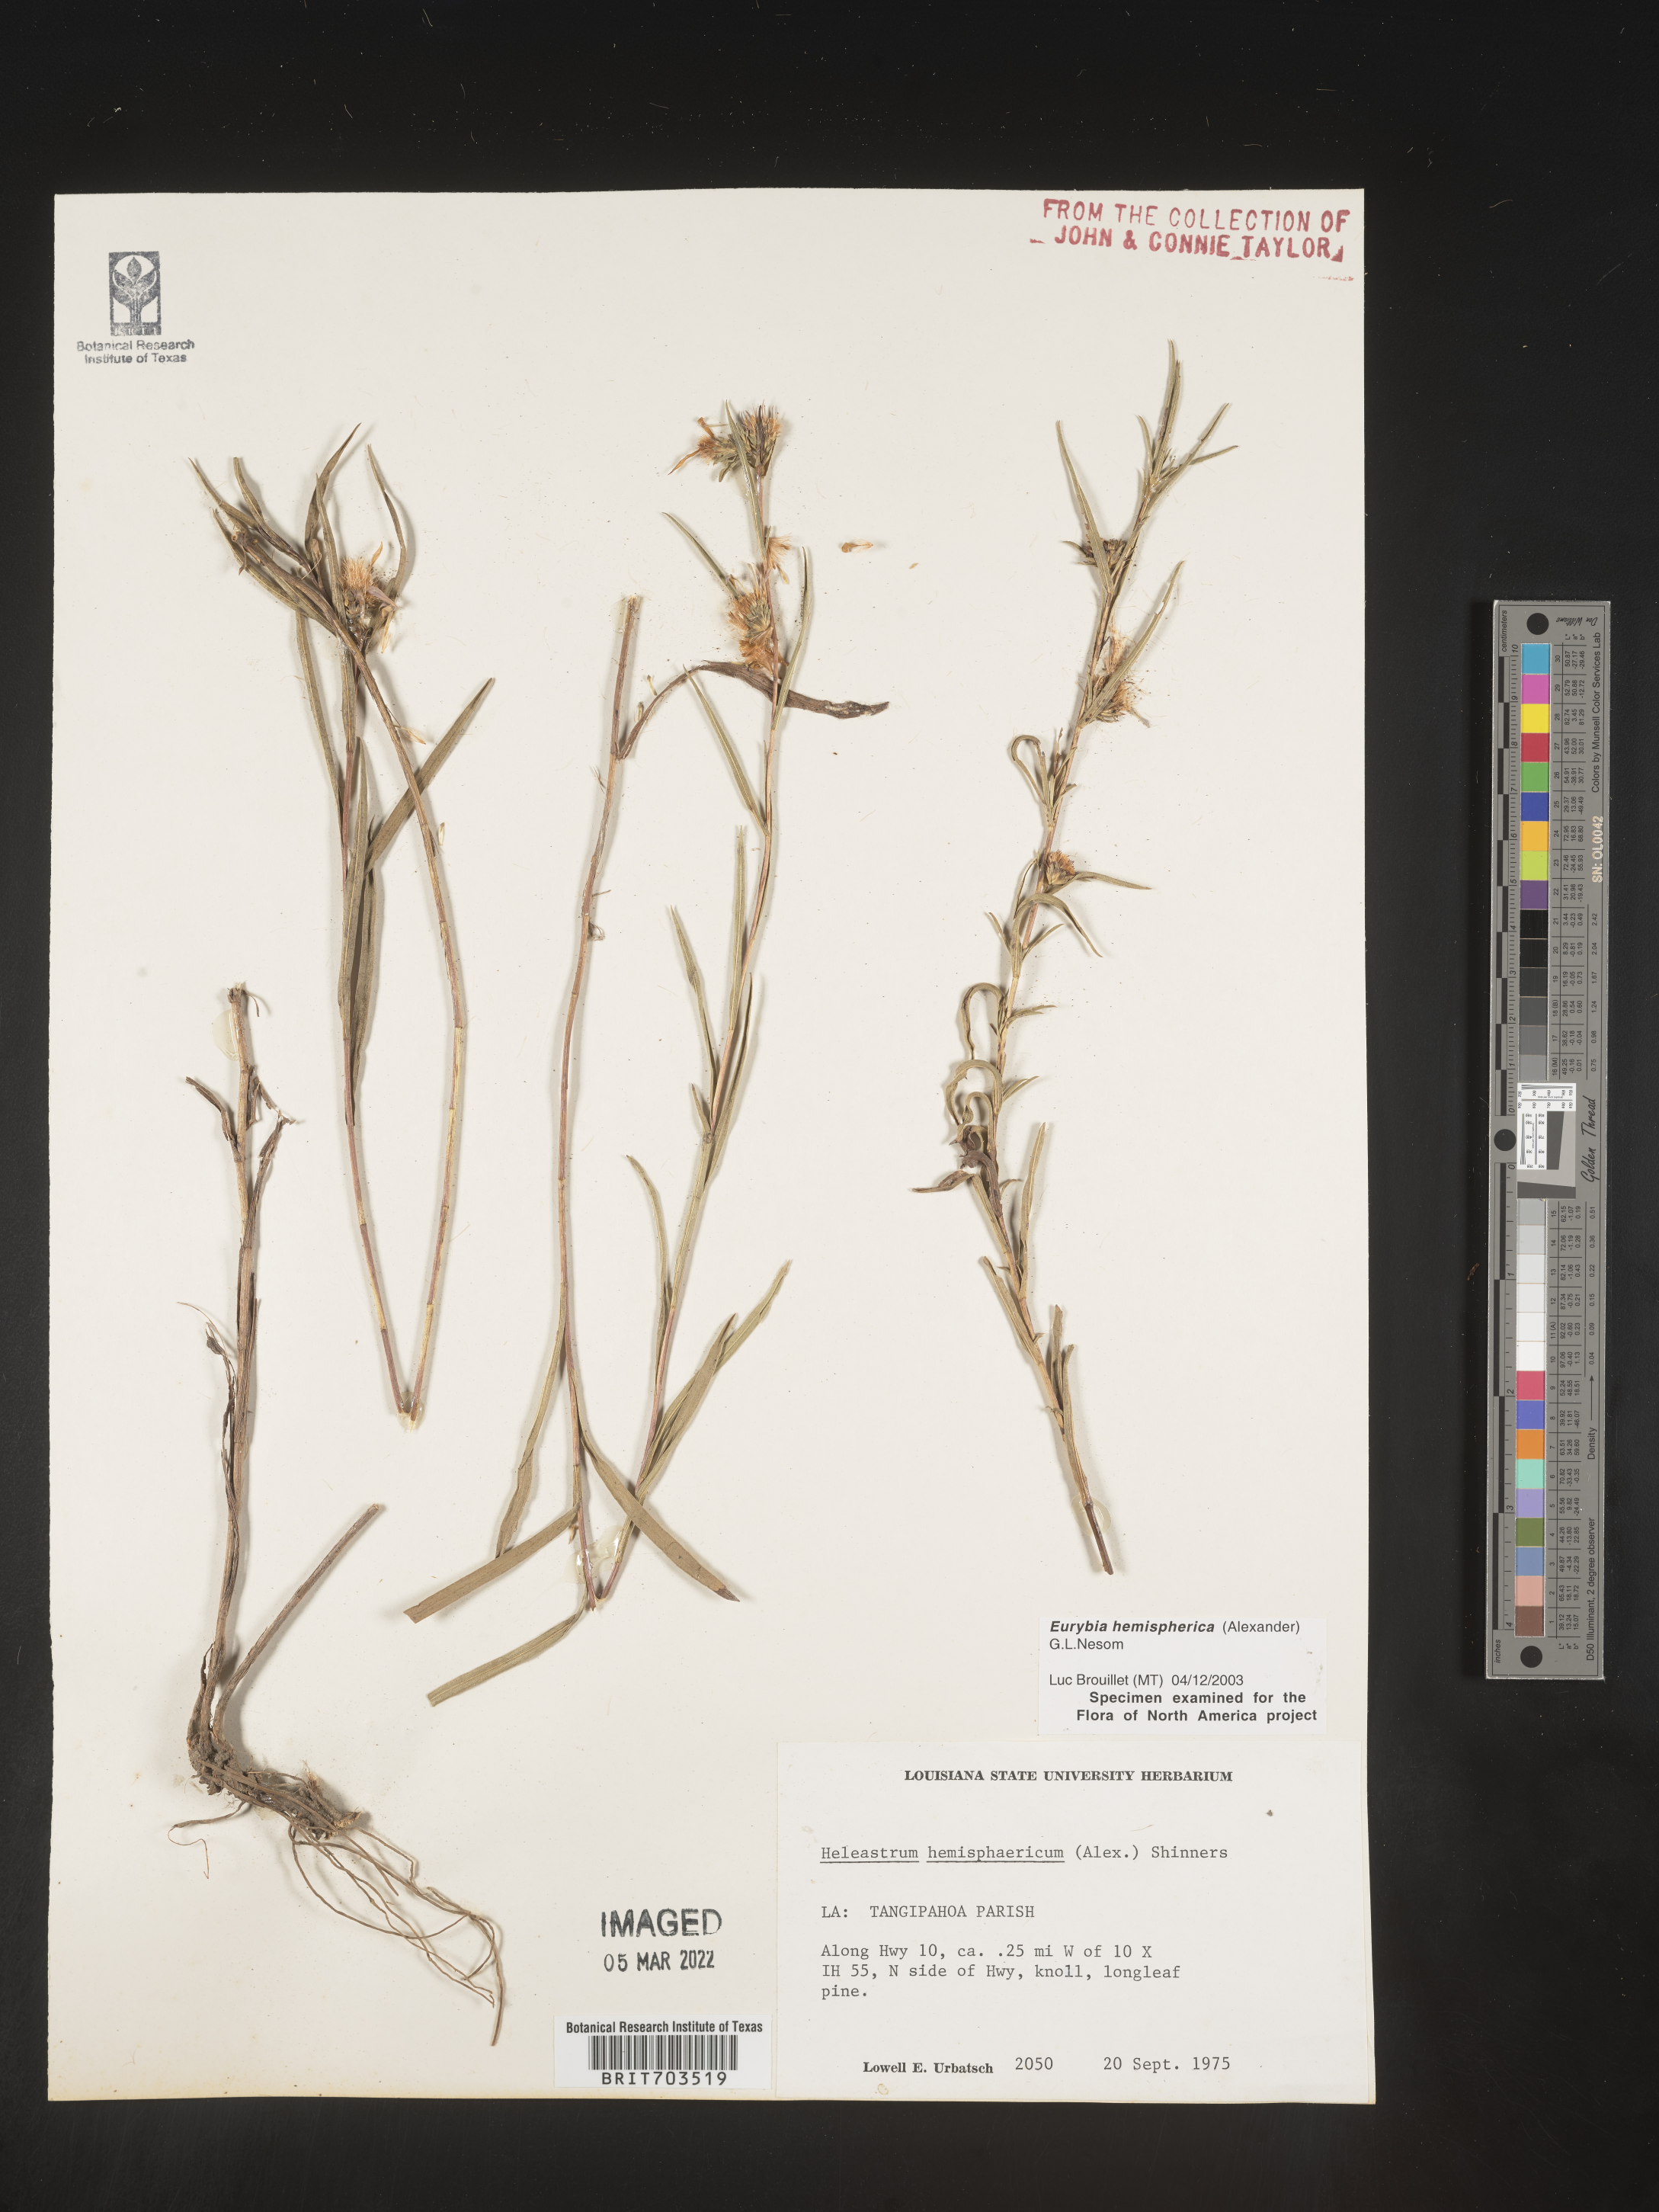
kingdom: Plantae
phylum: Tracheophyta
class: Magnoliopsida
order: Asterales
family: Asteraceae
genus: Eurybia
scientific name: Eurybia hemispherica
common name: Showy aster
